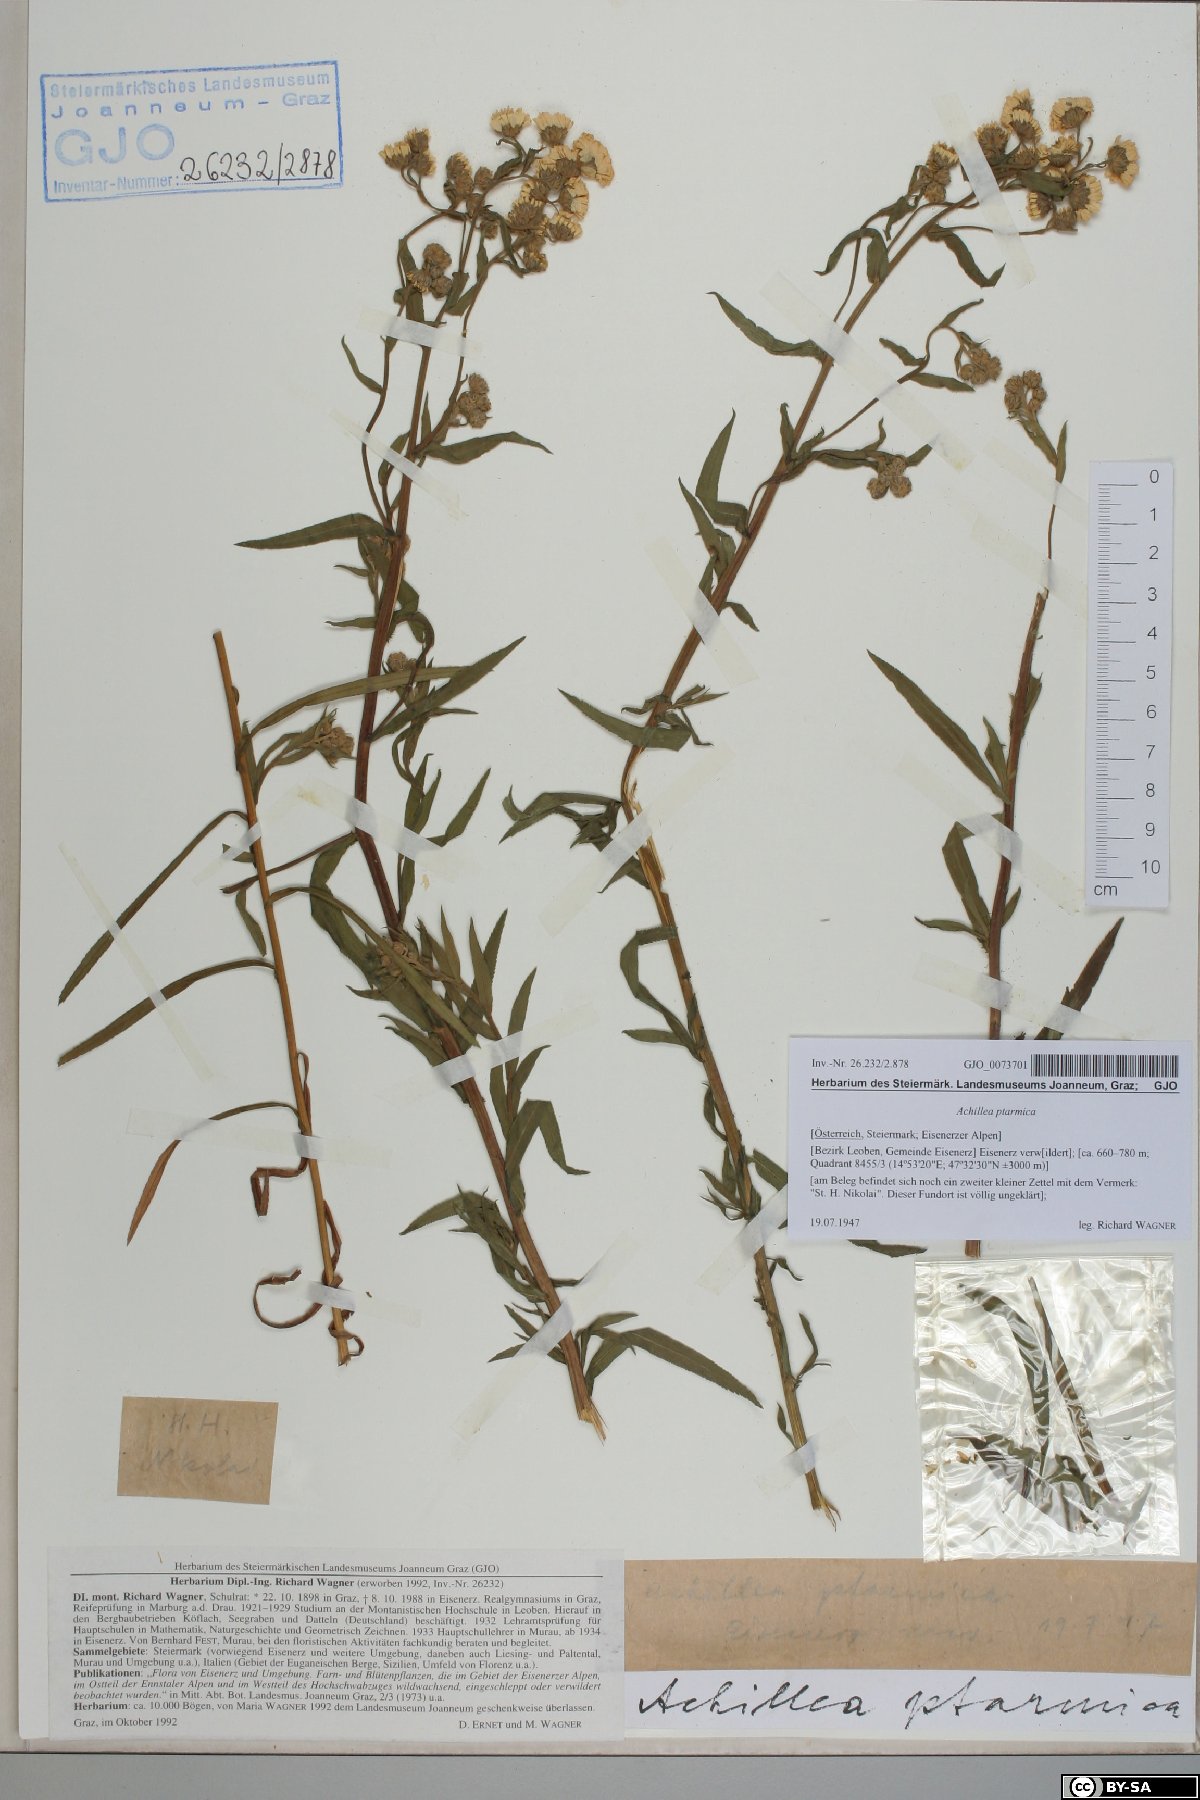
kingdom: Plantae
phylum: Tracheophyta
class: Magnoliopsida
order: Asterales
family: Asteraceae
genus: Achillea
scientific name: Achillea ptarmica
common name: Sneezeweed
